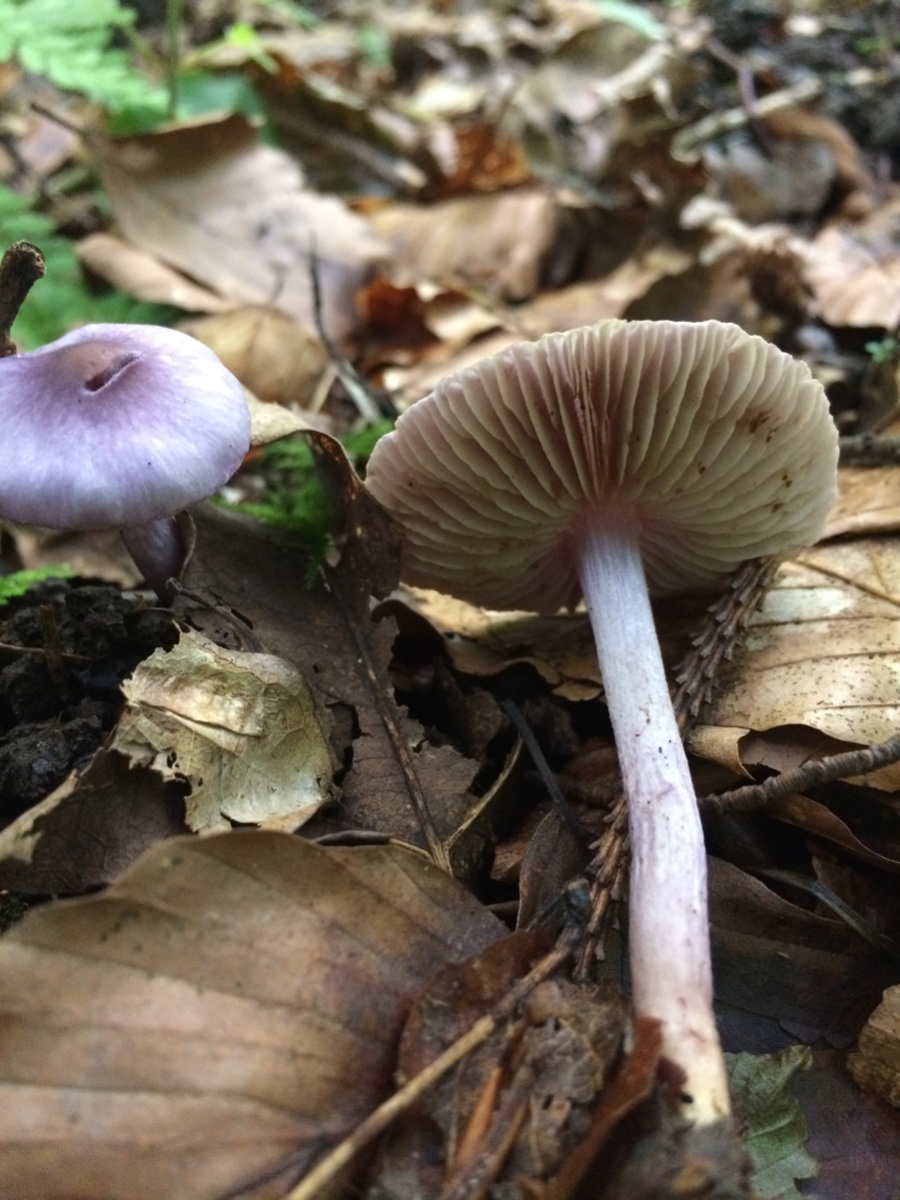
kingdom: Fungi
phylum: Basidiomycota
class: Agaricomycetes
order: Agaricales
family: Inocybaceae
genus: Inocybe
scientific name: Inocybe geophylla
